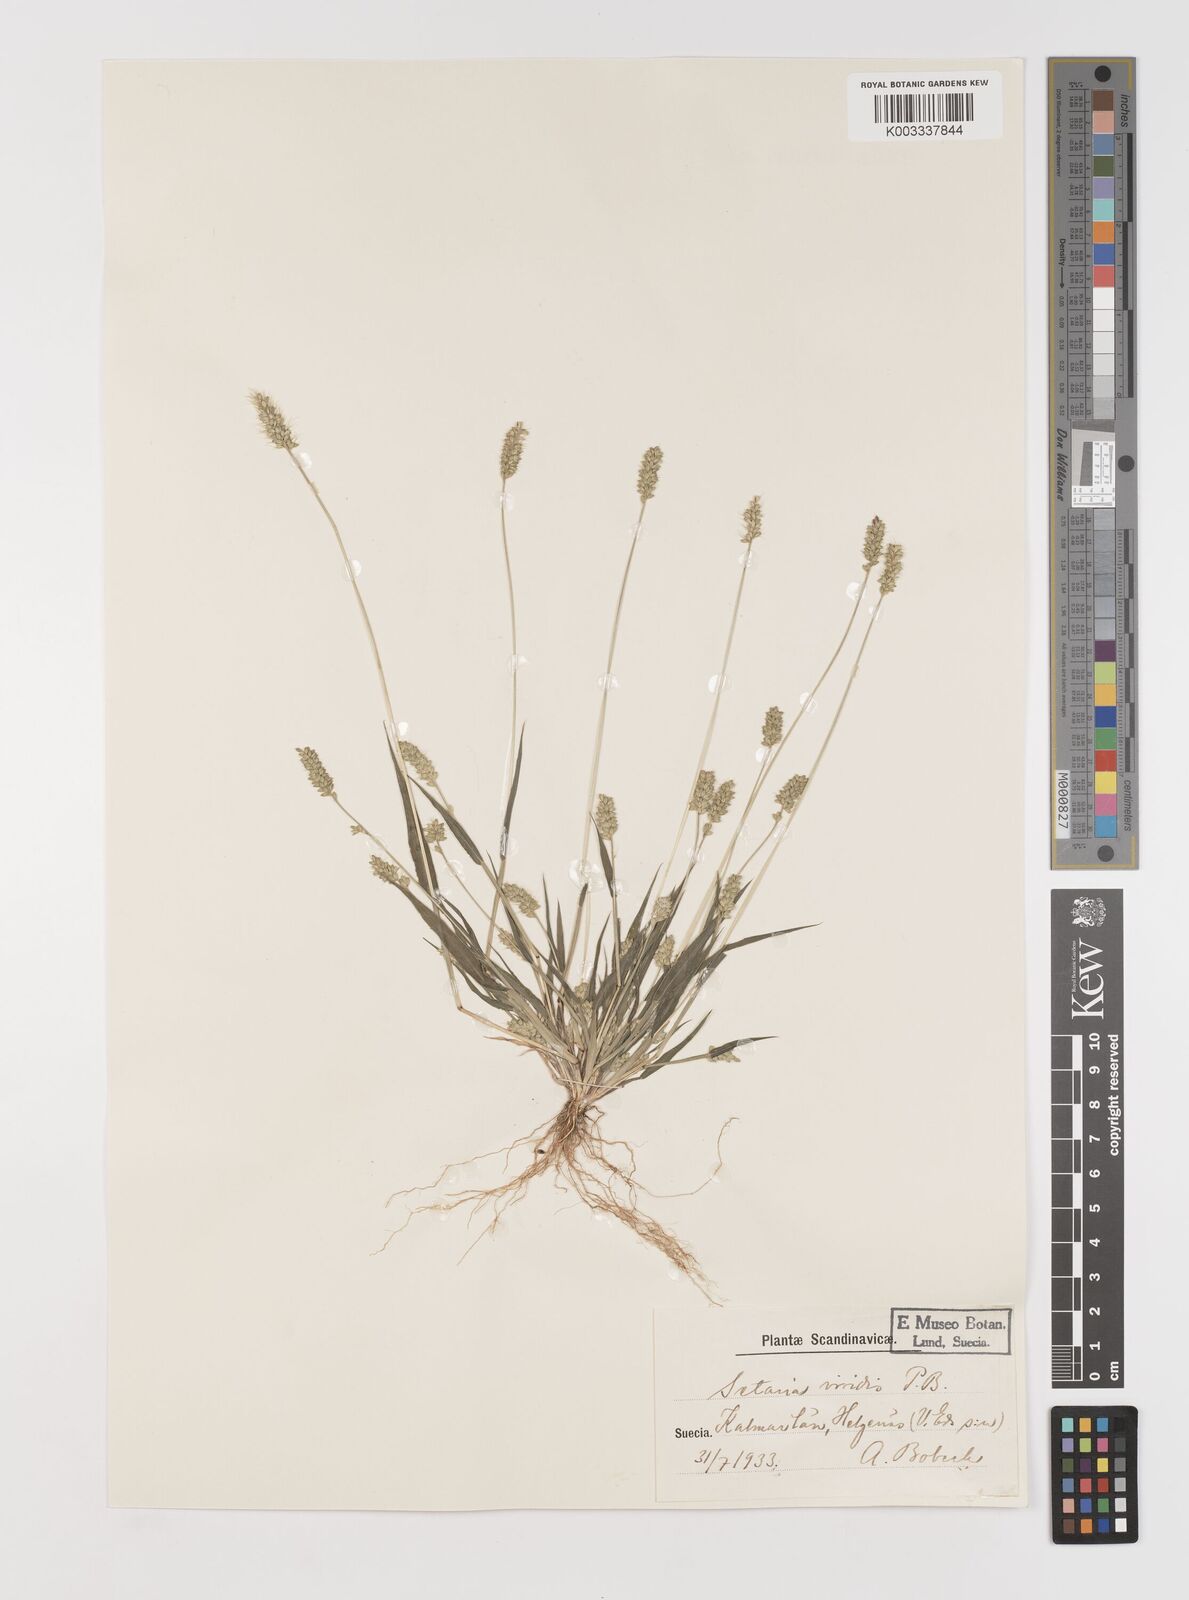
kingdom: Plantae
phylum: Tracheophyta
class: Liliopsida
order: Poales
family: Poaceae
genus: Setaria
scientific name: Setaria viridis
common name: Green bristlegrass
